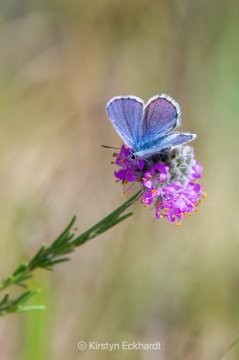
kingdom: Animalia
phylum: Arthropoda
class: Insecta
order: Lepidoptera
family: Lycaenidae
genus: Lycaeides
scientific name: Lycaeides melissa
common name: Melissa Blue
